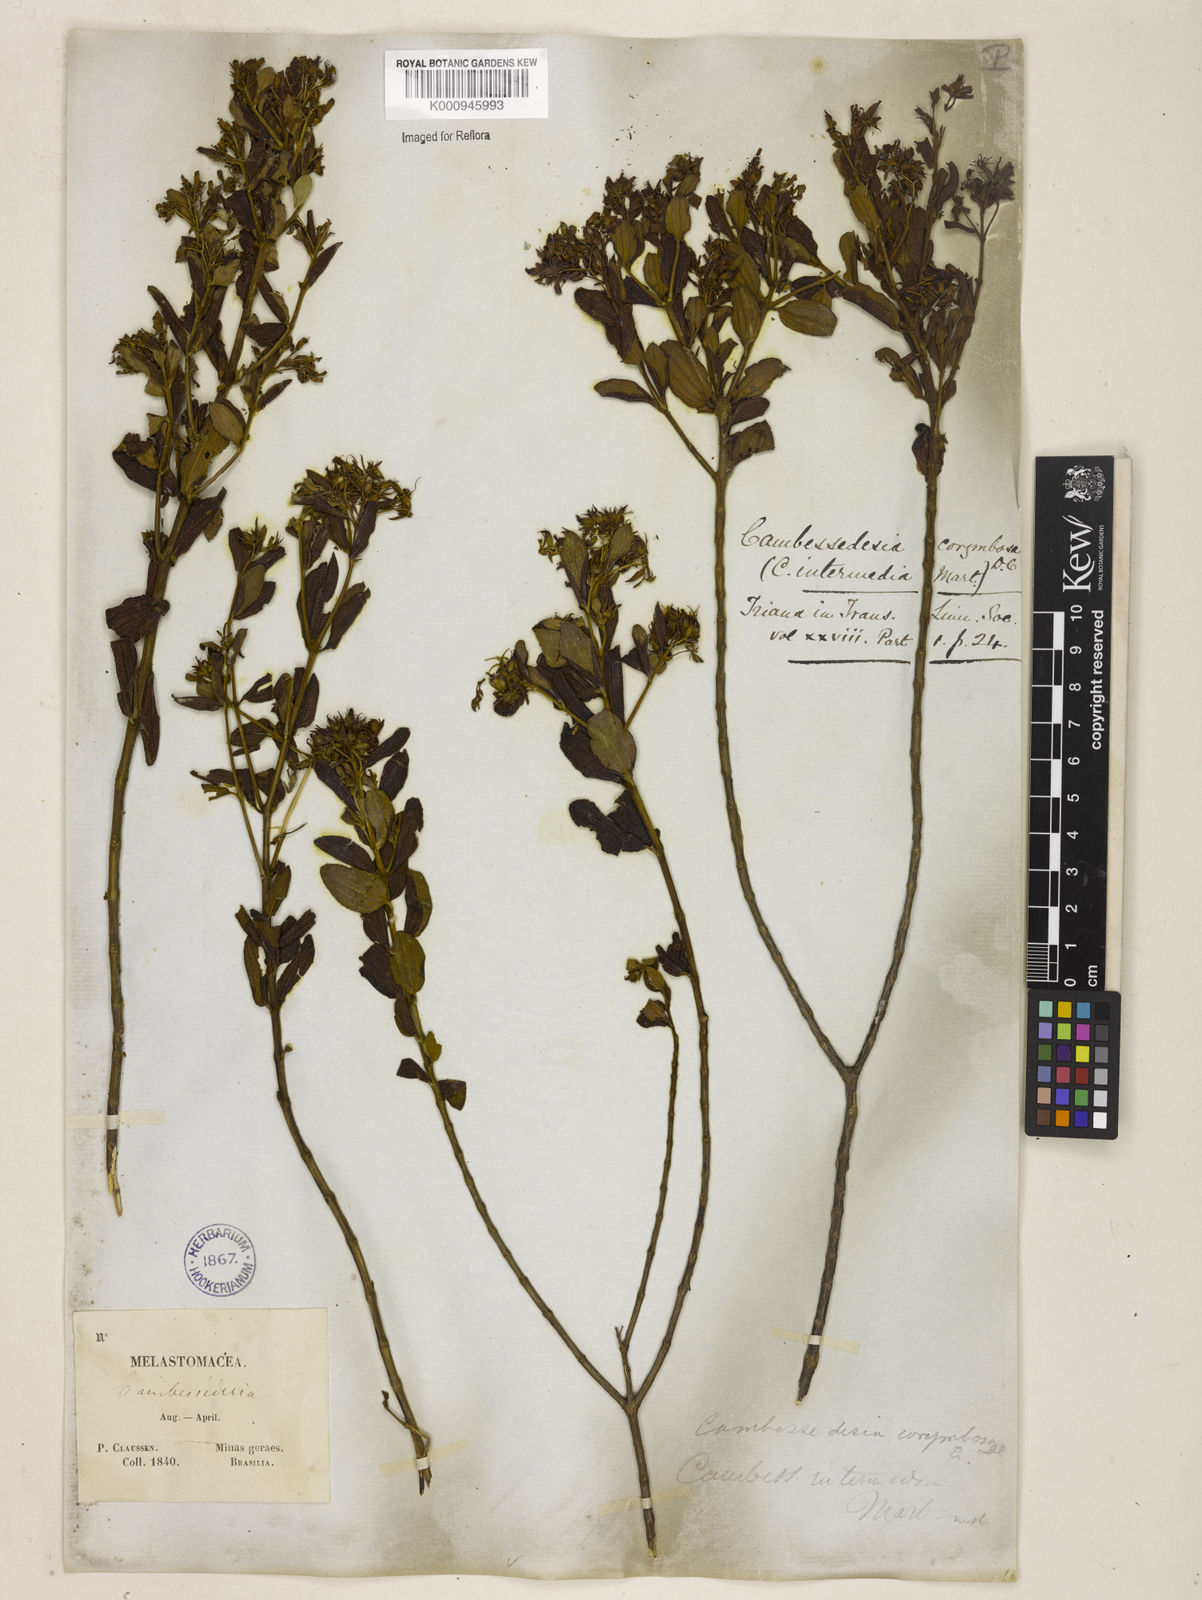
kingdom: Plantae
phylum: Tracheophyta
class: Magnoliopsida
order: Myrtales
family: Melastomataceae
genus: Cambessedesia
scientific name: Cambessedesia corymbosa
